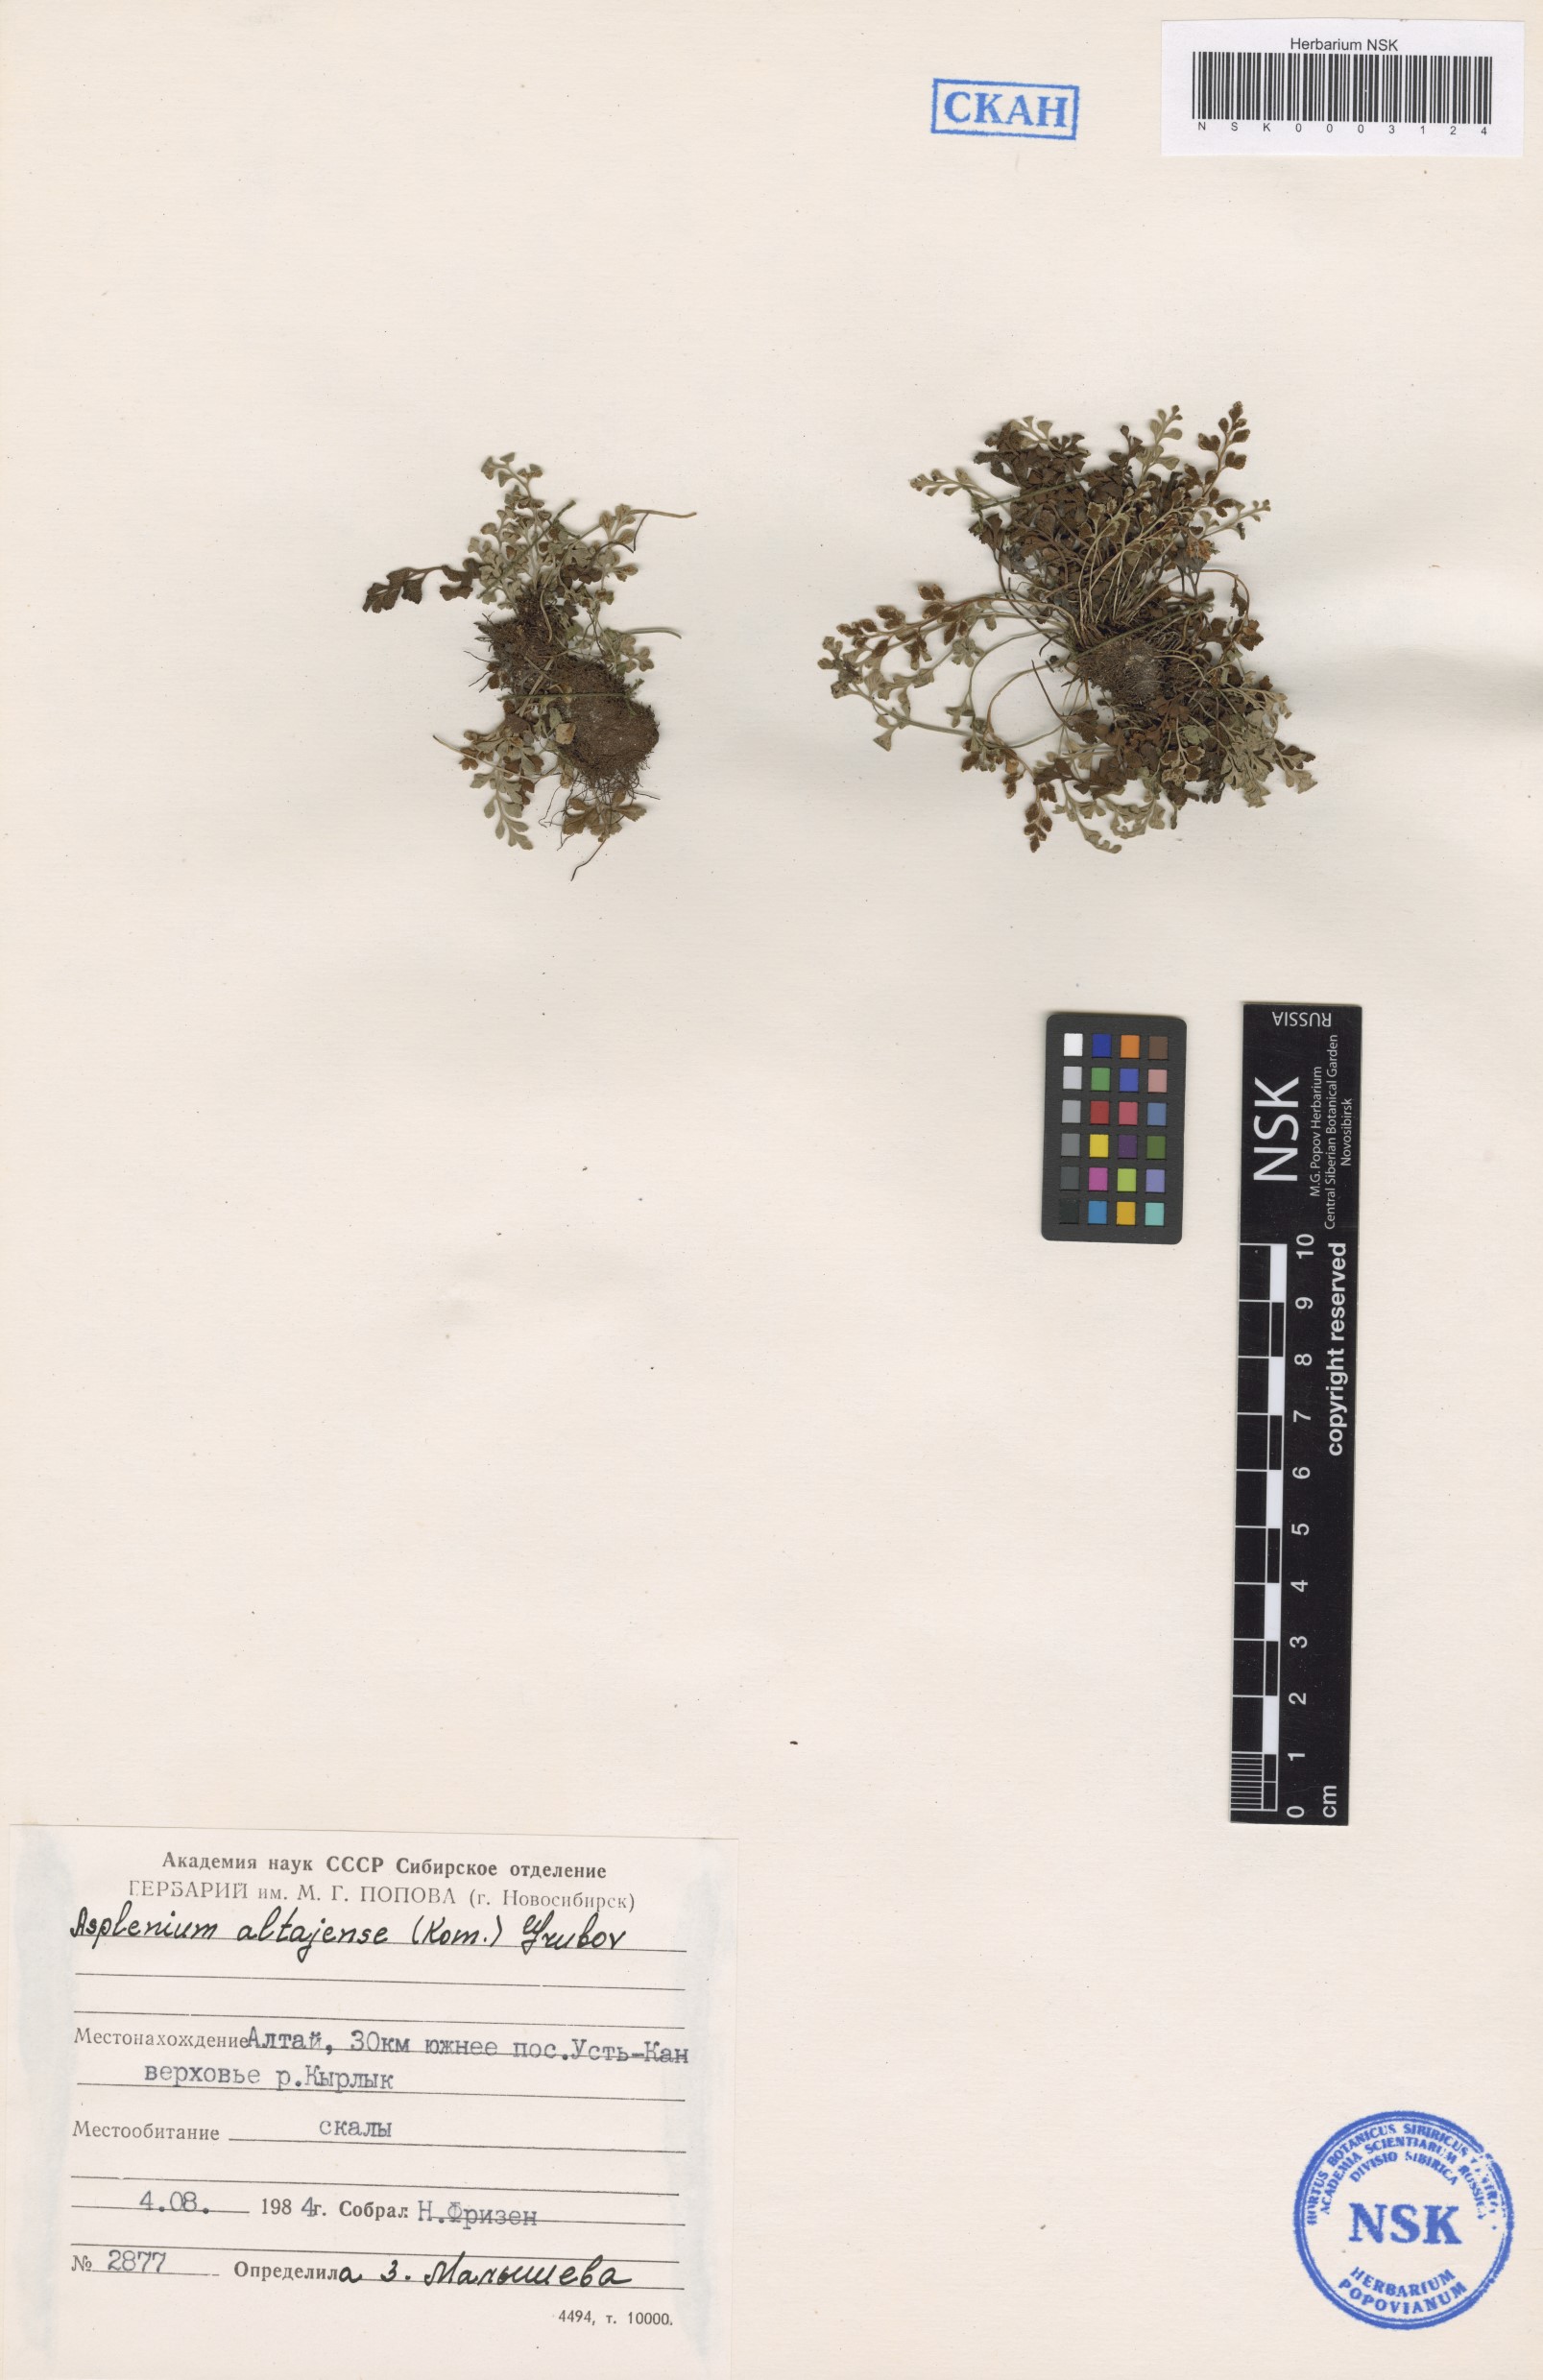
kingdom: Plantae
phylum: Tracheophyta
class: Polypodiopsida
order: Polypodiales
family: Aspleniaceae
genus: Asplenium
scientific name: Asplenium altajense
